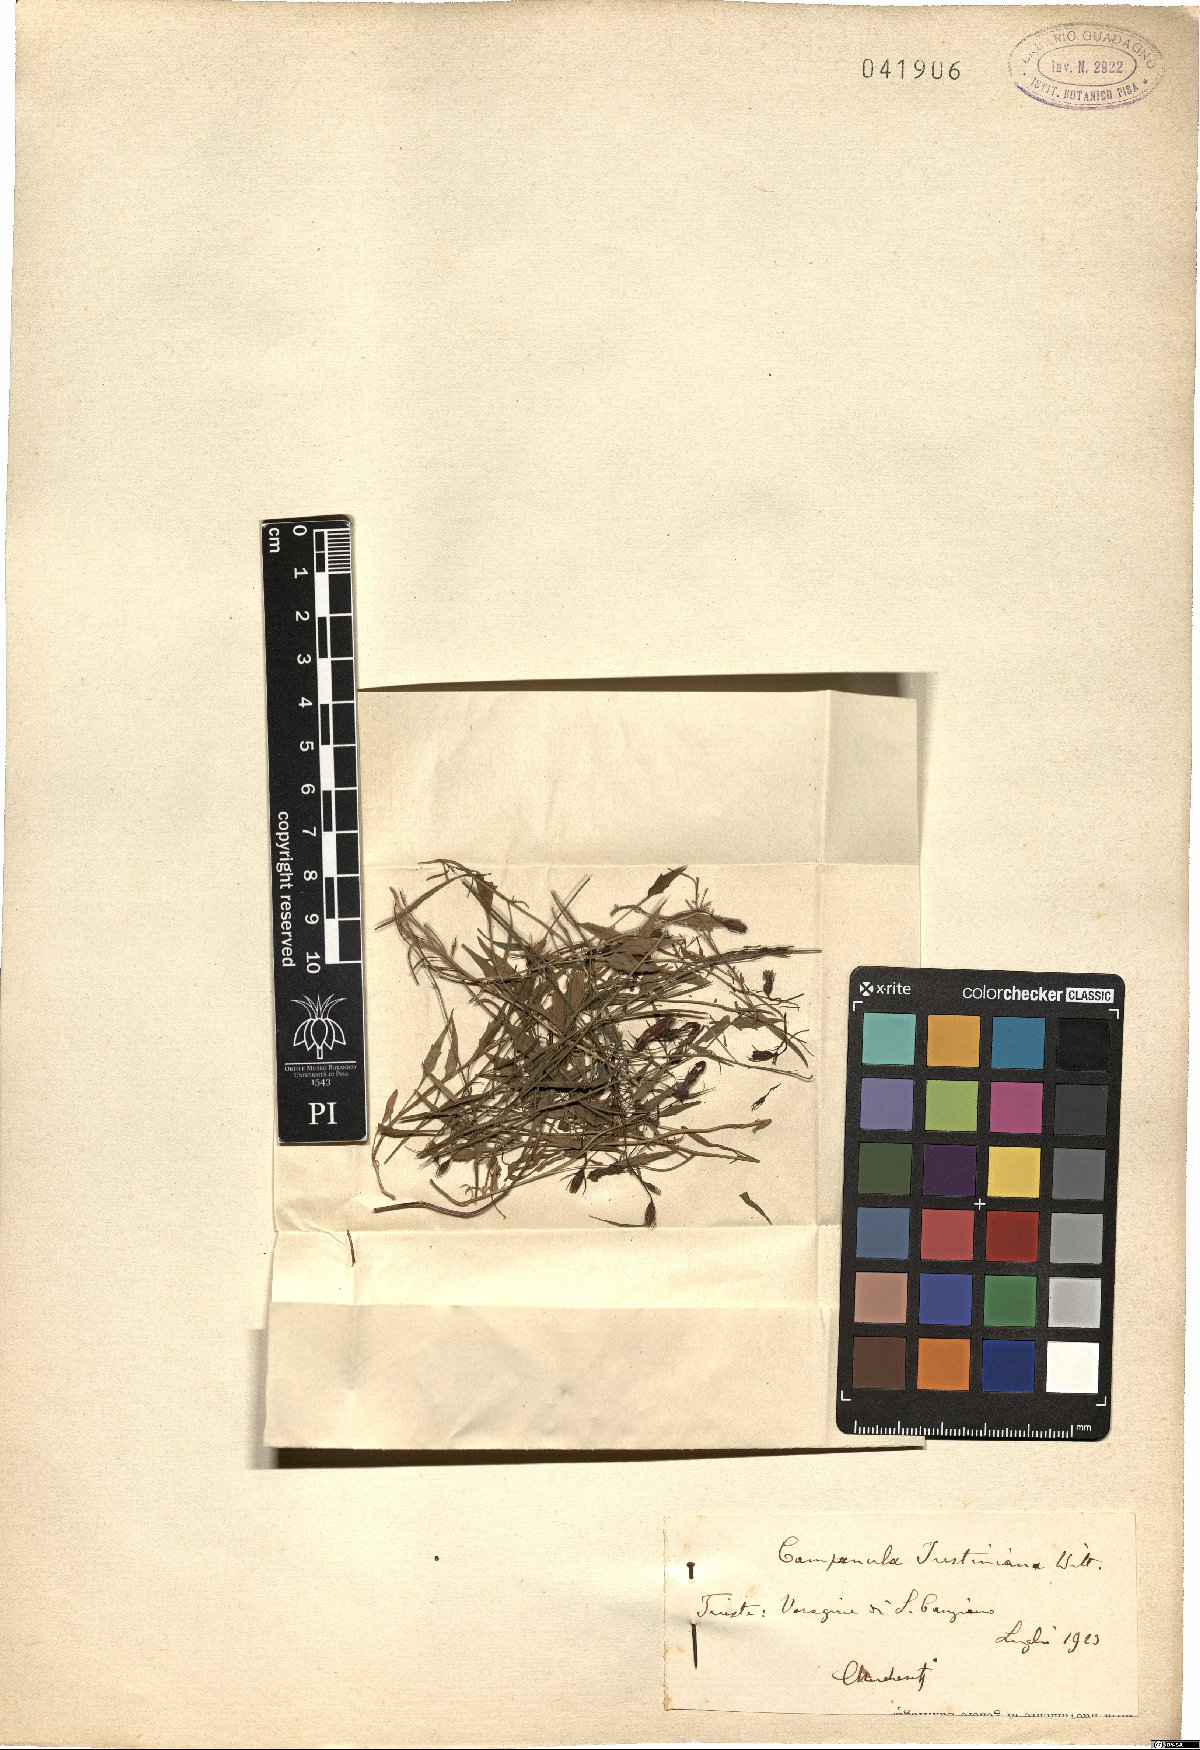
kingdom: Plantae
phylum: Tracheophyta
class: Magnoliopsida
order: Asterales
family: Campanulaceae
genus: Campanula
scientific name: Campanula justiniana
